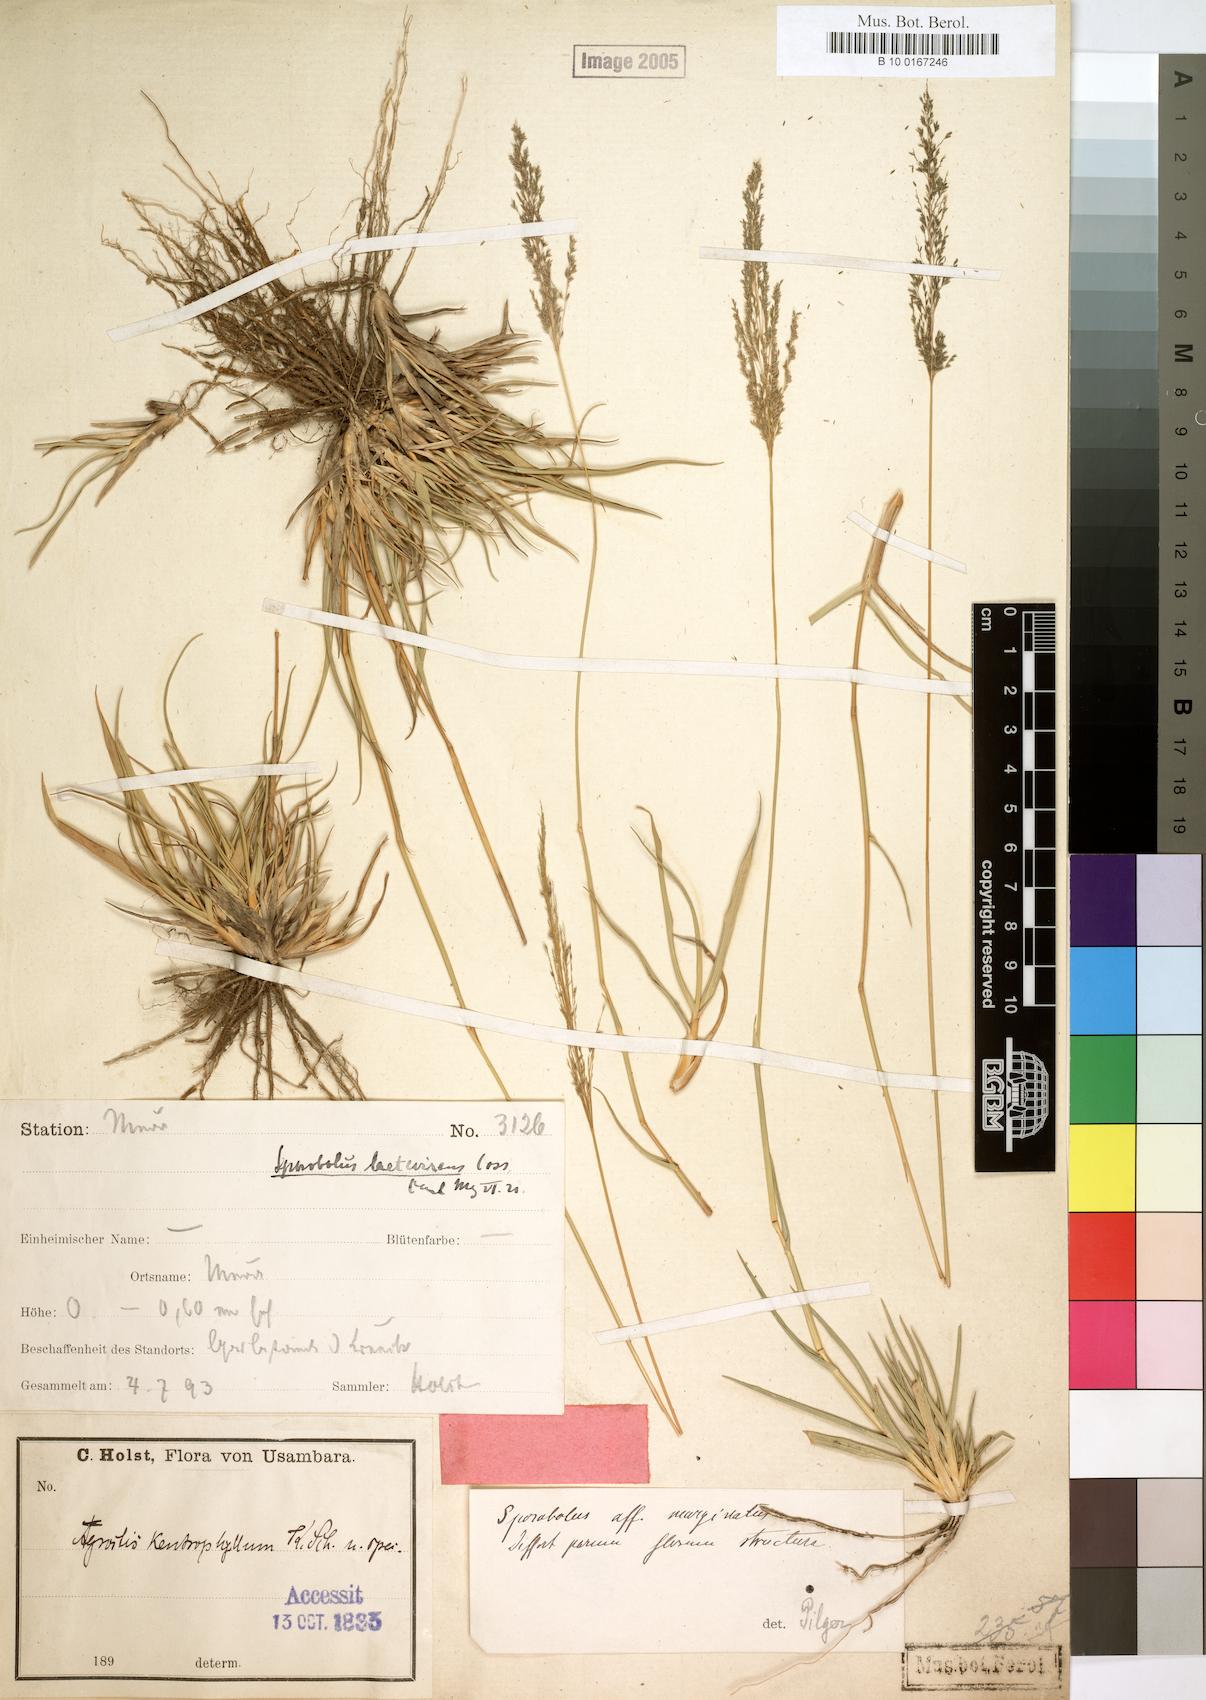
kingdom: Plantae
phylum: Tracheophyta
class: Liliopsida
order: Poales
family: Poaceae
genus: Sporobolus
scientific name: Sporobolus ioclados
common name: Pan dropseed
